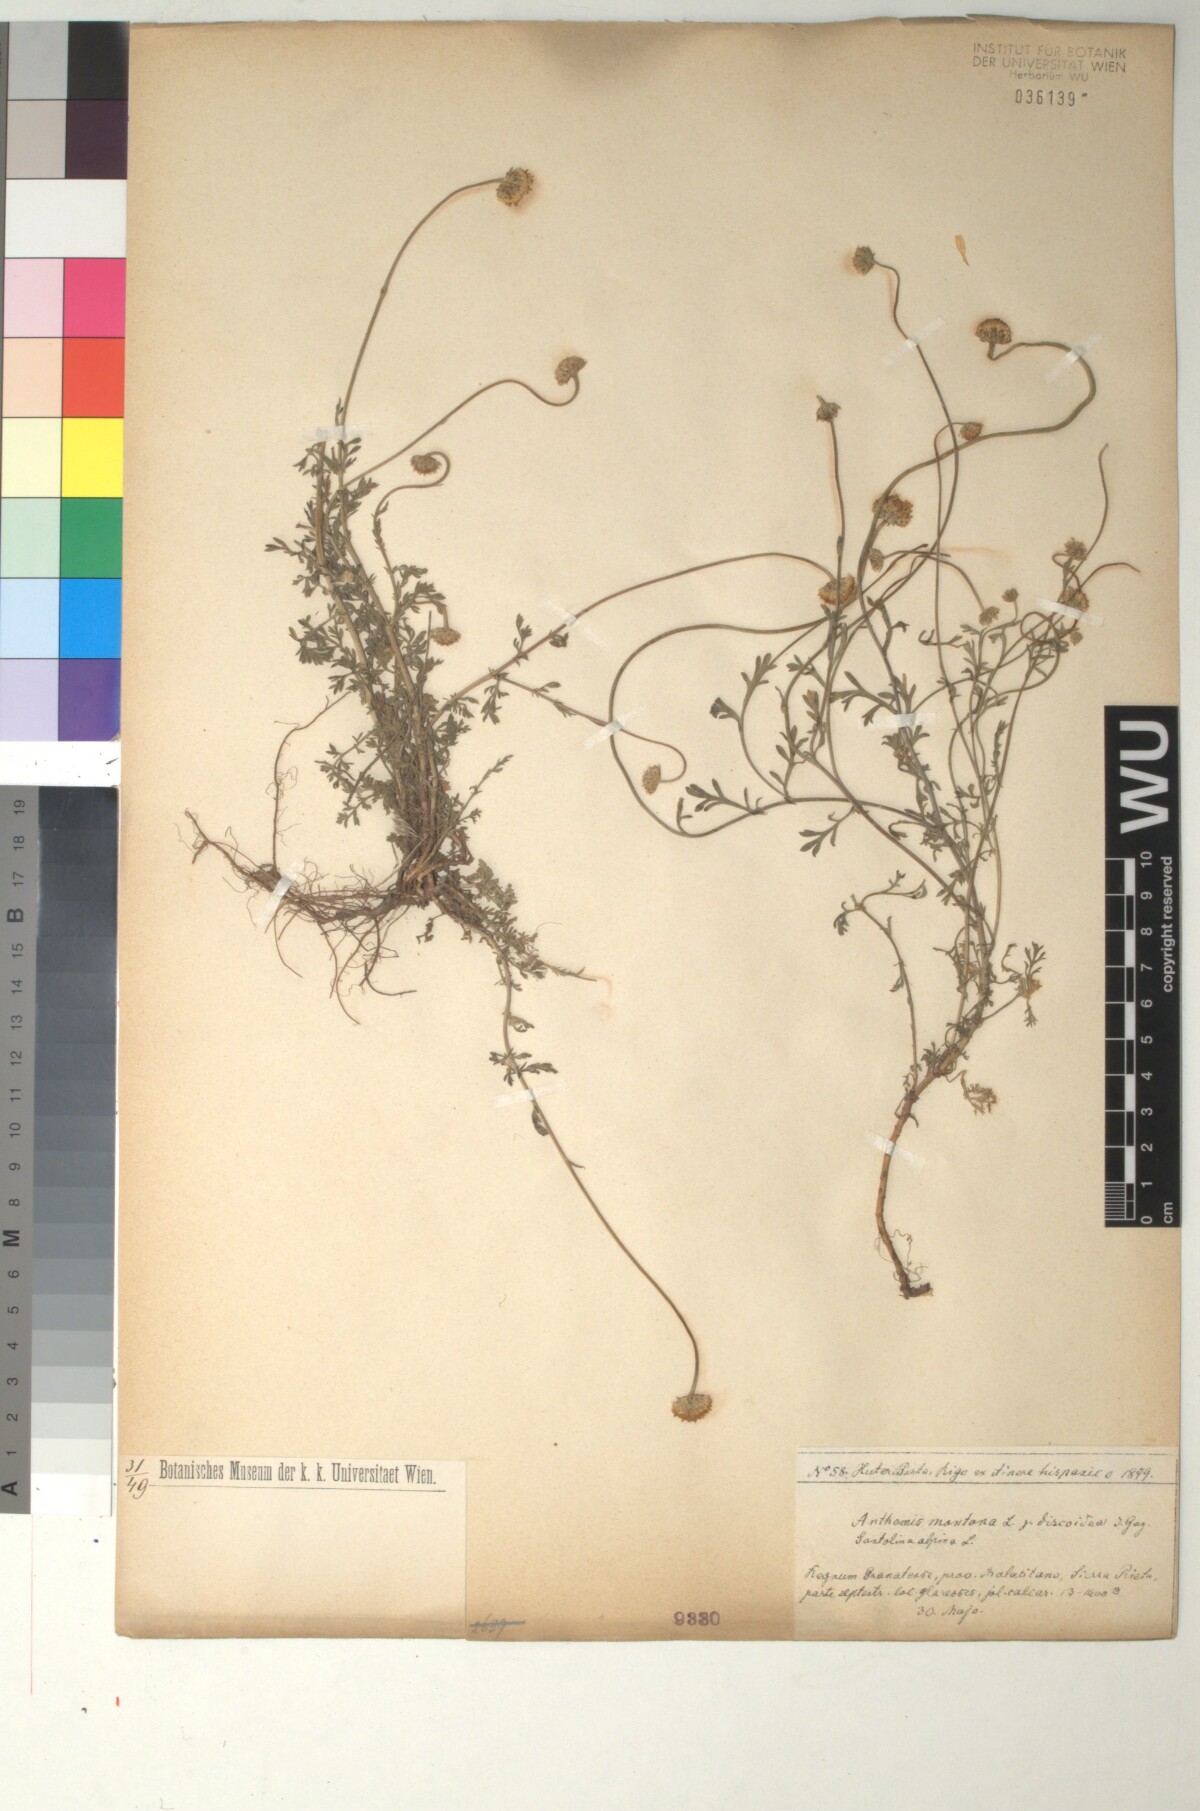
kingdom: Plantae
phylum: Tracheophyta
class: Magnoliopsida
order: Asterales
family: Asteraceae
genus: Anthemis
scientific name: Anthemis pedunculata
